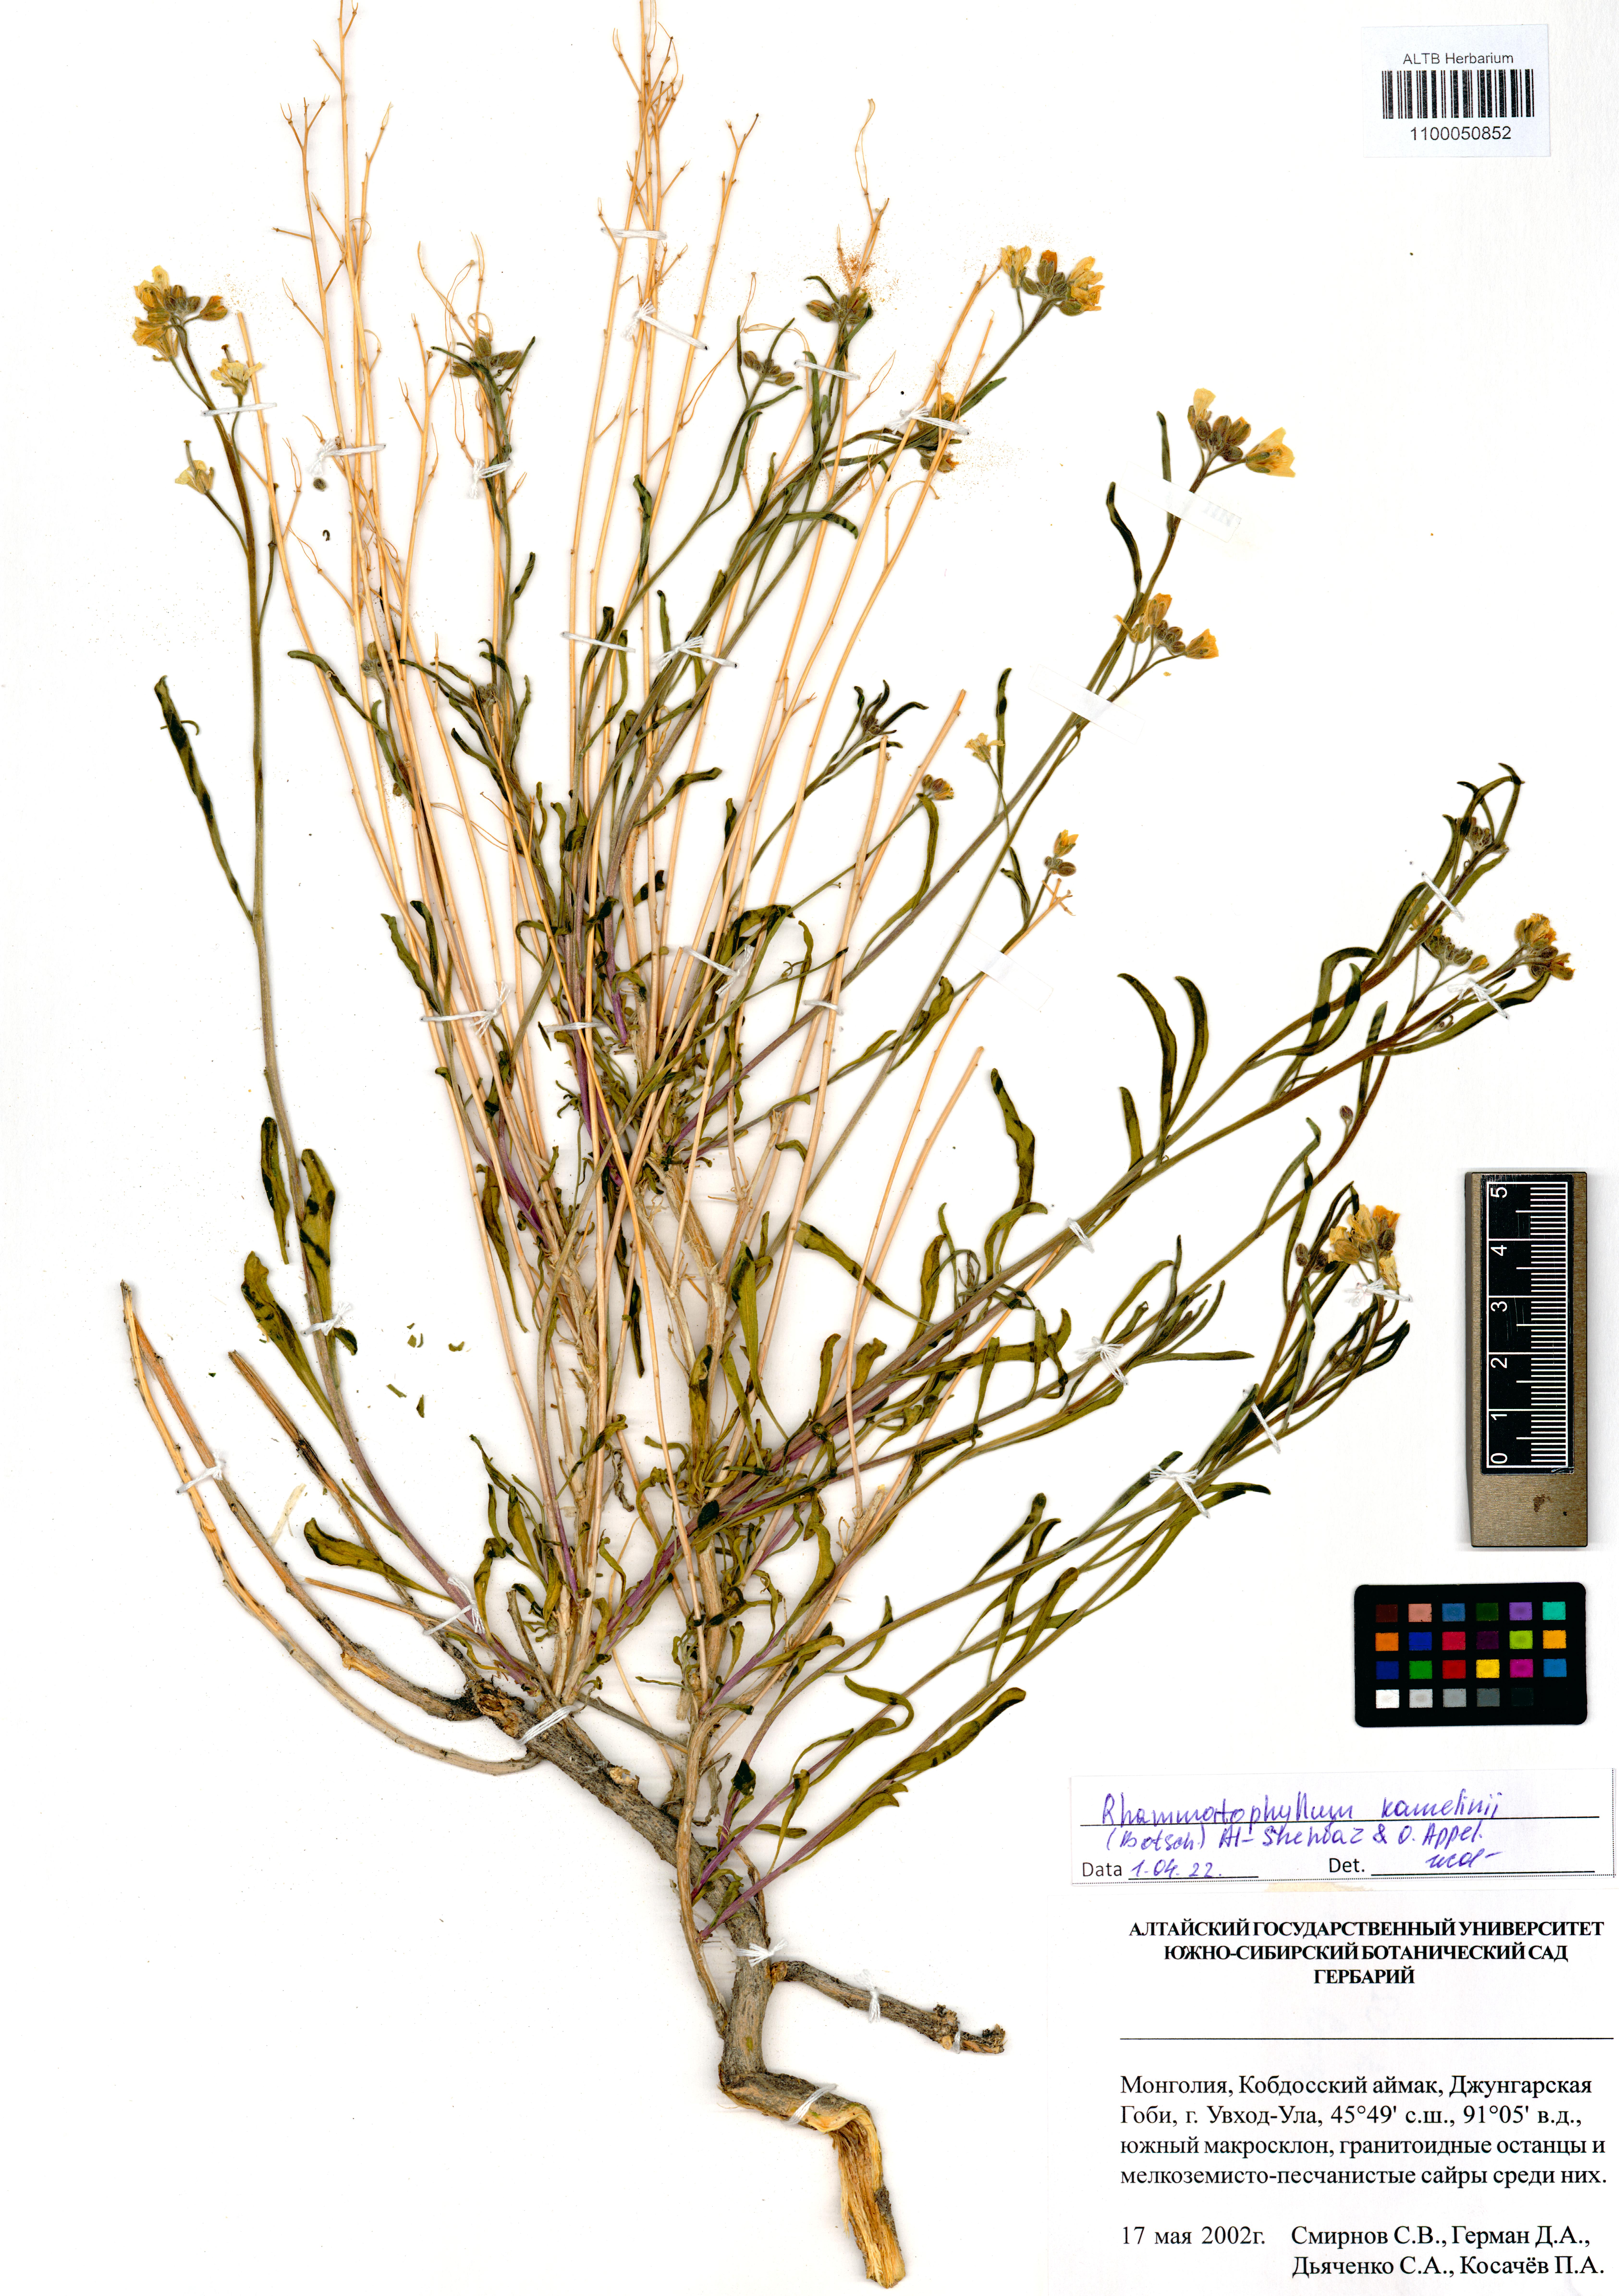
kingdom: Plantae
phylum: Tracheophyta
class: Magnoliopsida
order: Brassicales
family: Brassicaceae
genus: Rhammatophyllum
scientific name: Rhammatophyllum kamelinii
